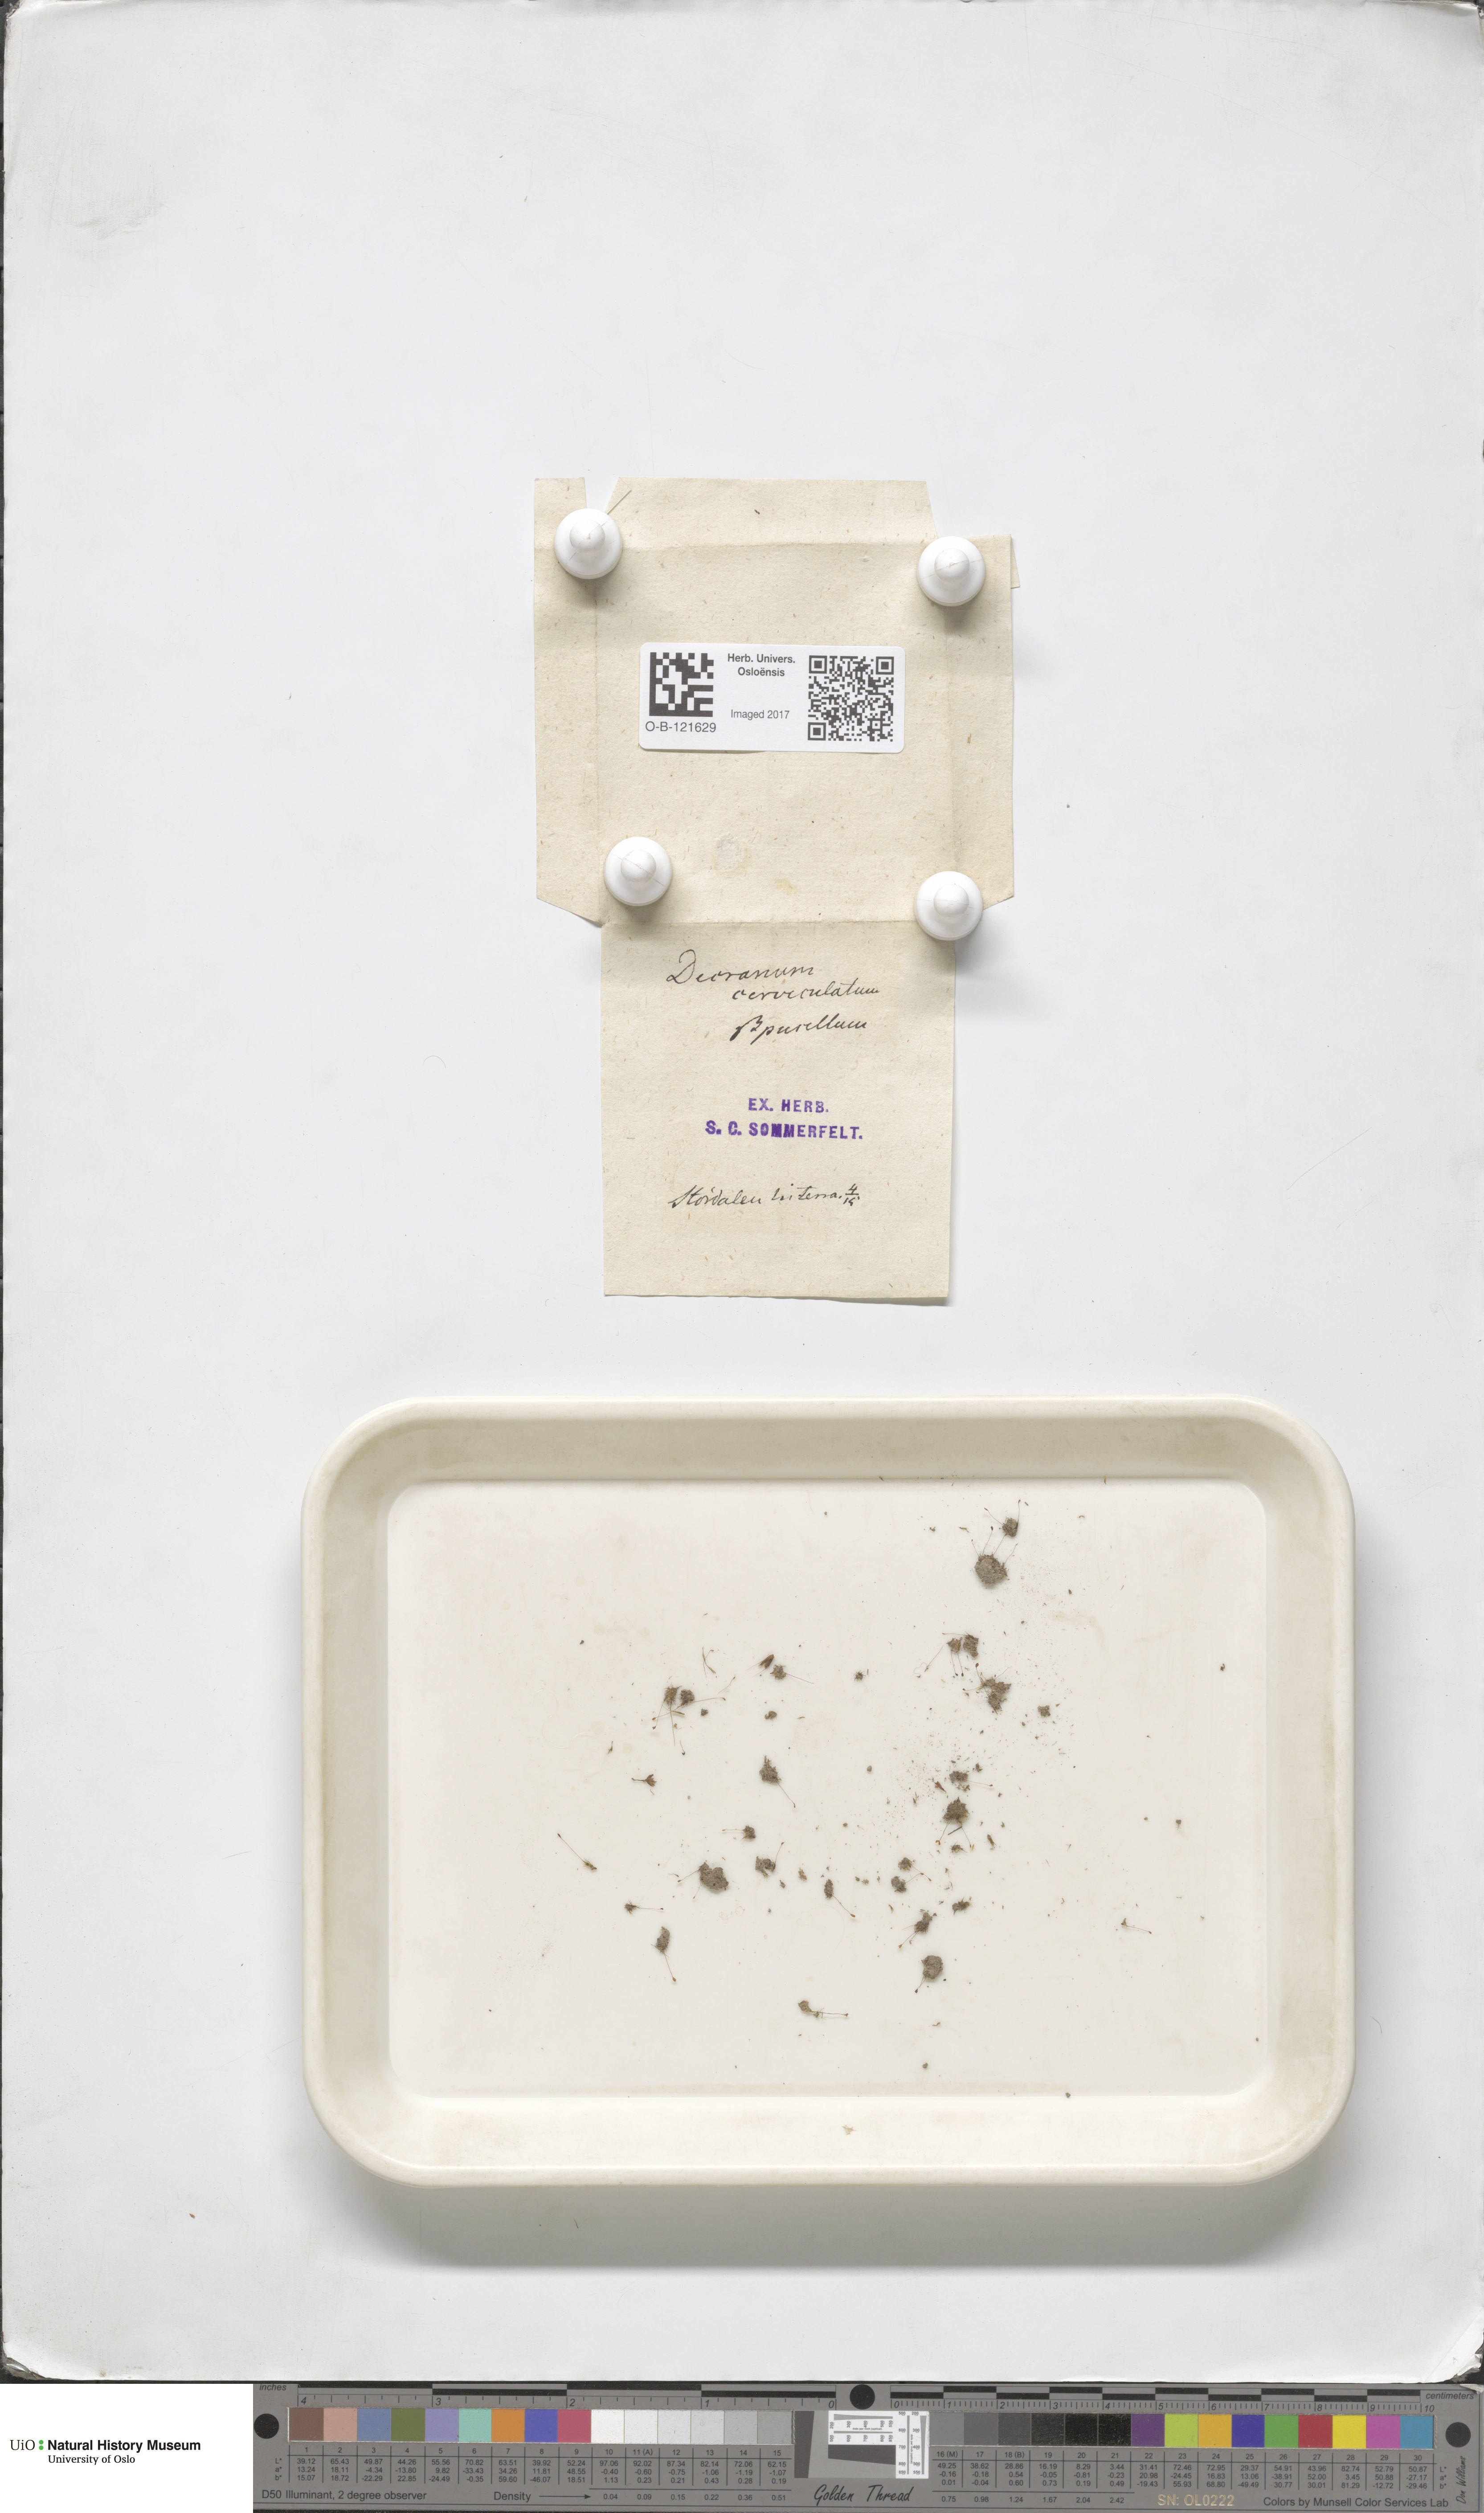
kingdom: Plantae
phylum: Bryophyta
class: Bryopsida
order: Dicranales
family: Dicranellaceae
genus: Dicranella
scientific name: Dicranella cerviculata
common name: Spur-necked forklet moss
